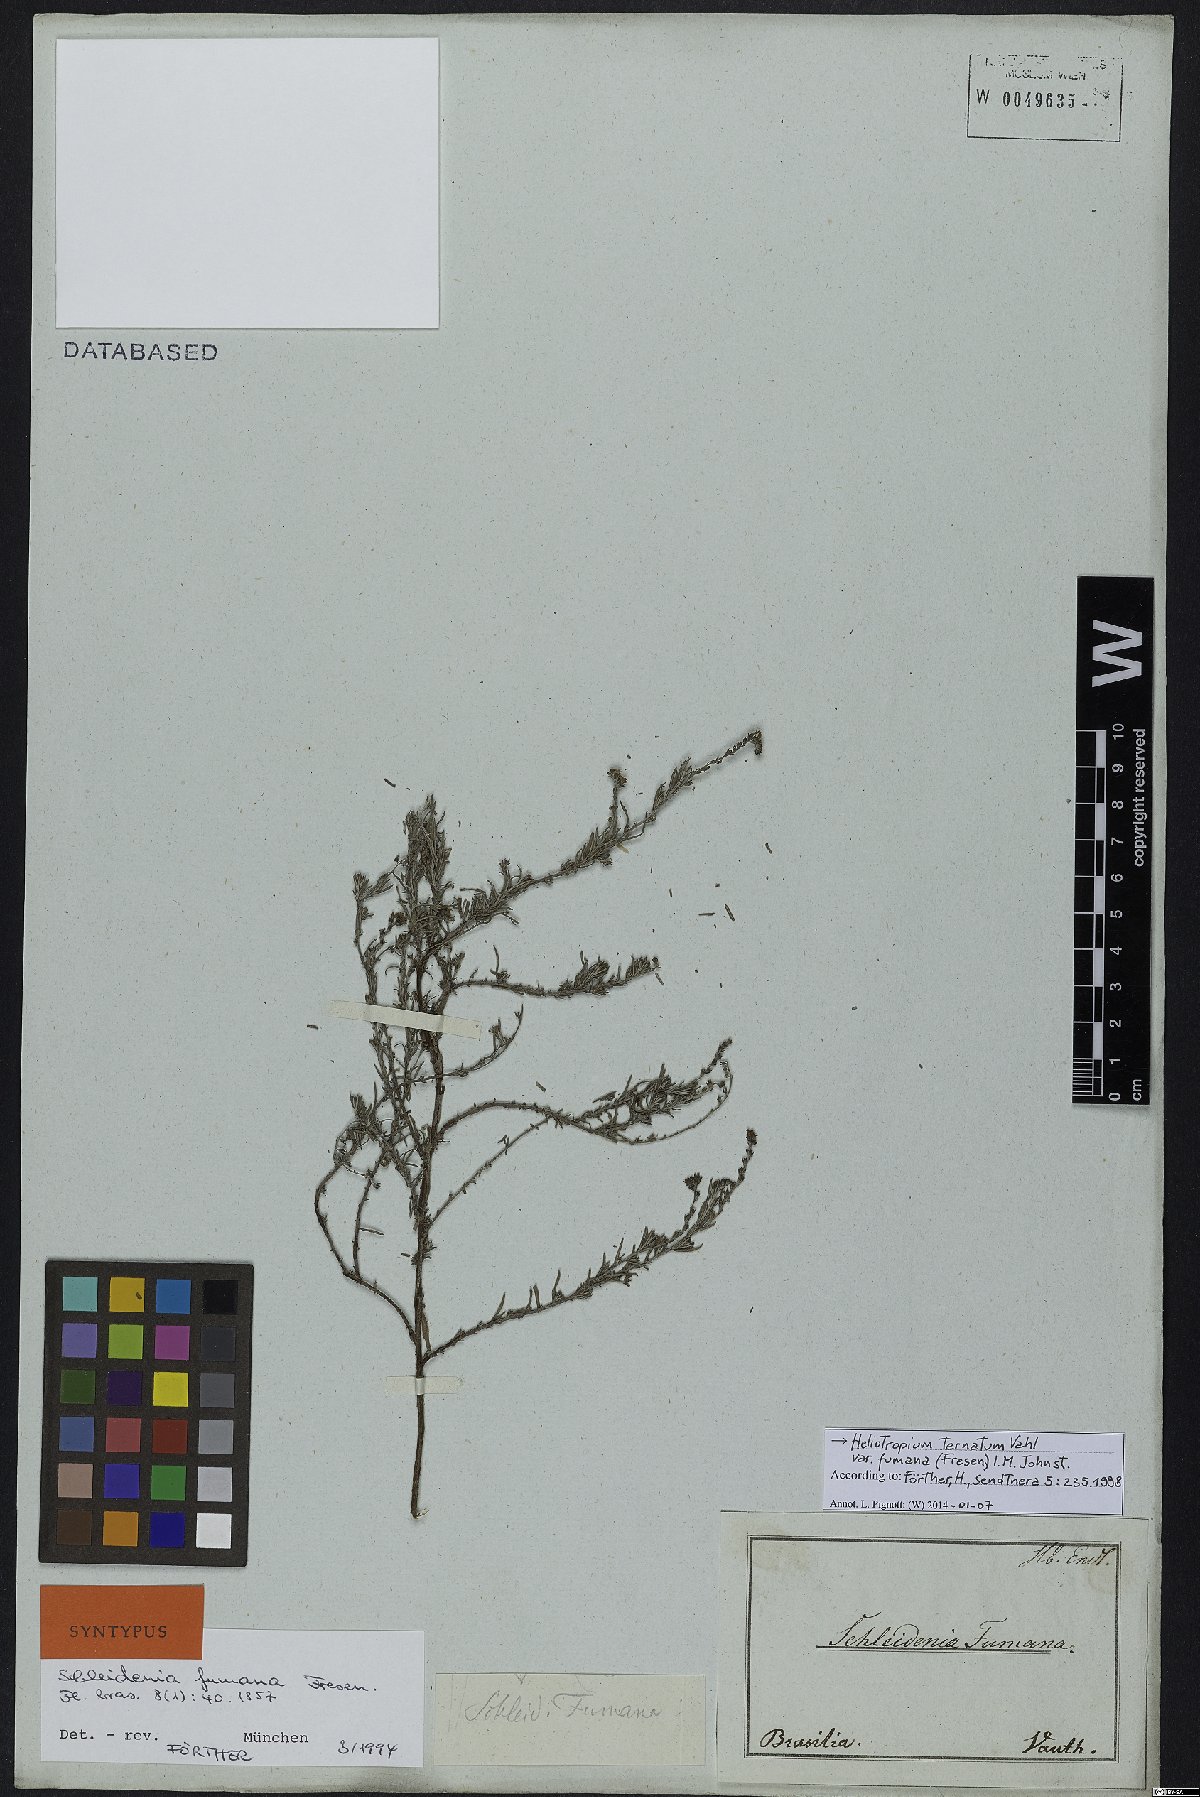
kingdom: Plantae
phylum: Tracheophyta
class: Magnoliopsida
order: Boraginales
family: Heliotropiaceae
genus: Euploca
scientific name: Euploca humilis
